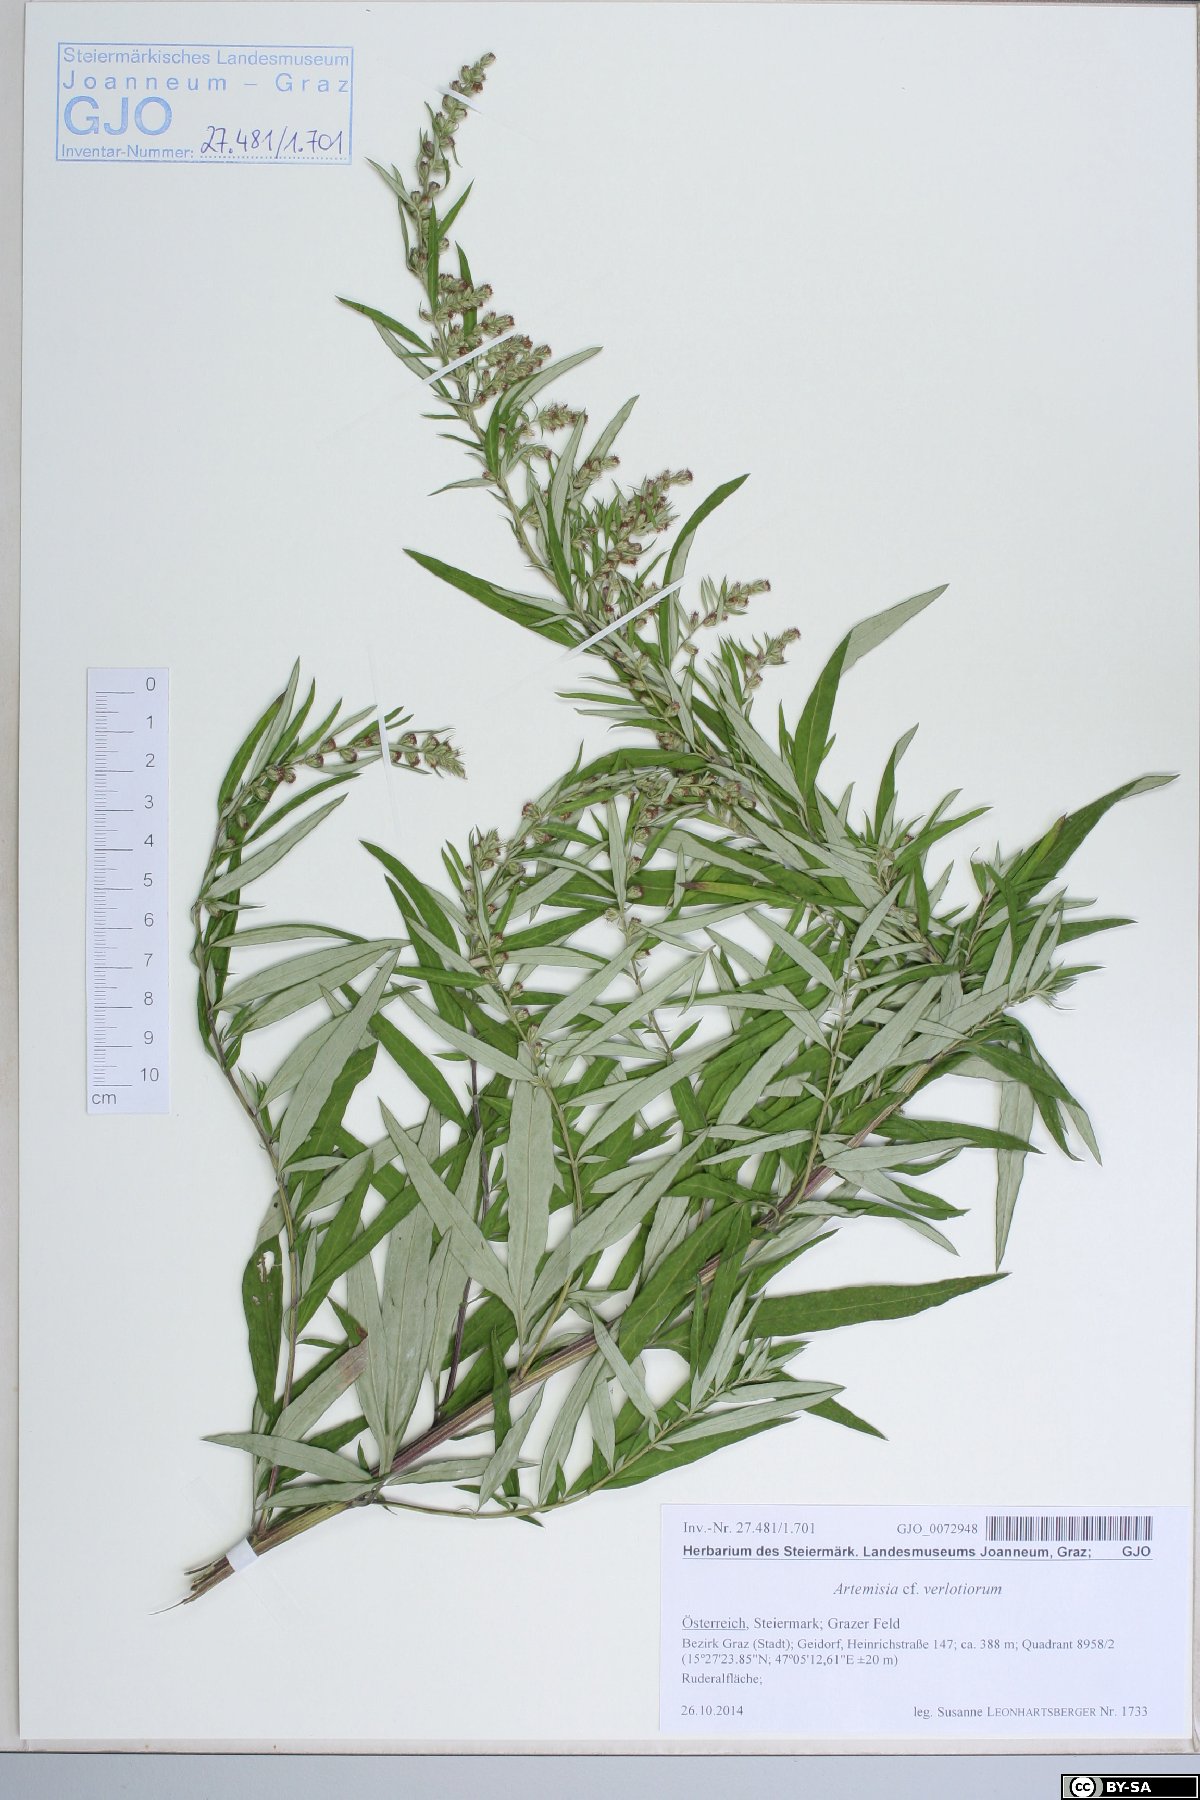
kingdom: Plantae
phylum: Tracheophyta
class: Magnoliopsida
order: Asterales
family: Asteraceae
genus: Artemisia
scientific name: Artemisia verlotiorum
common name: Chinese mugwort
